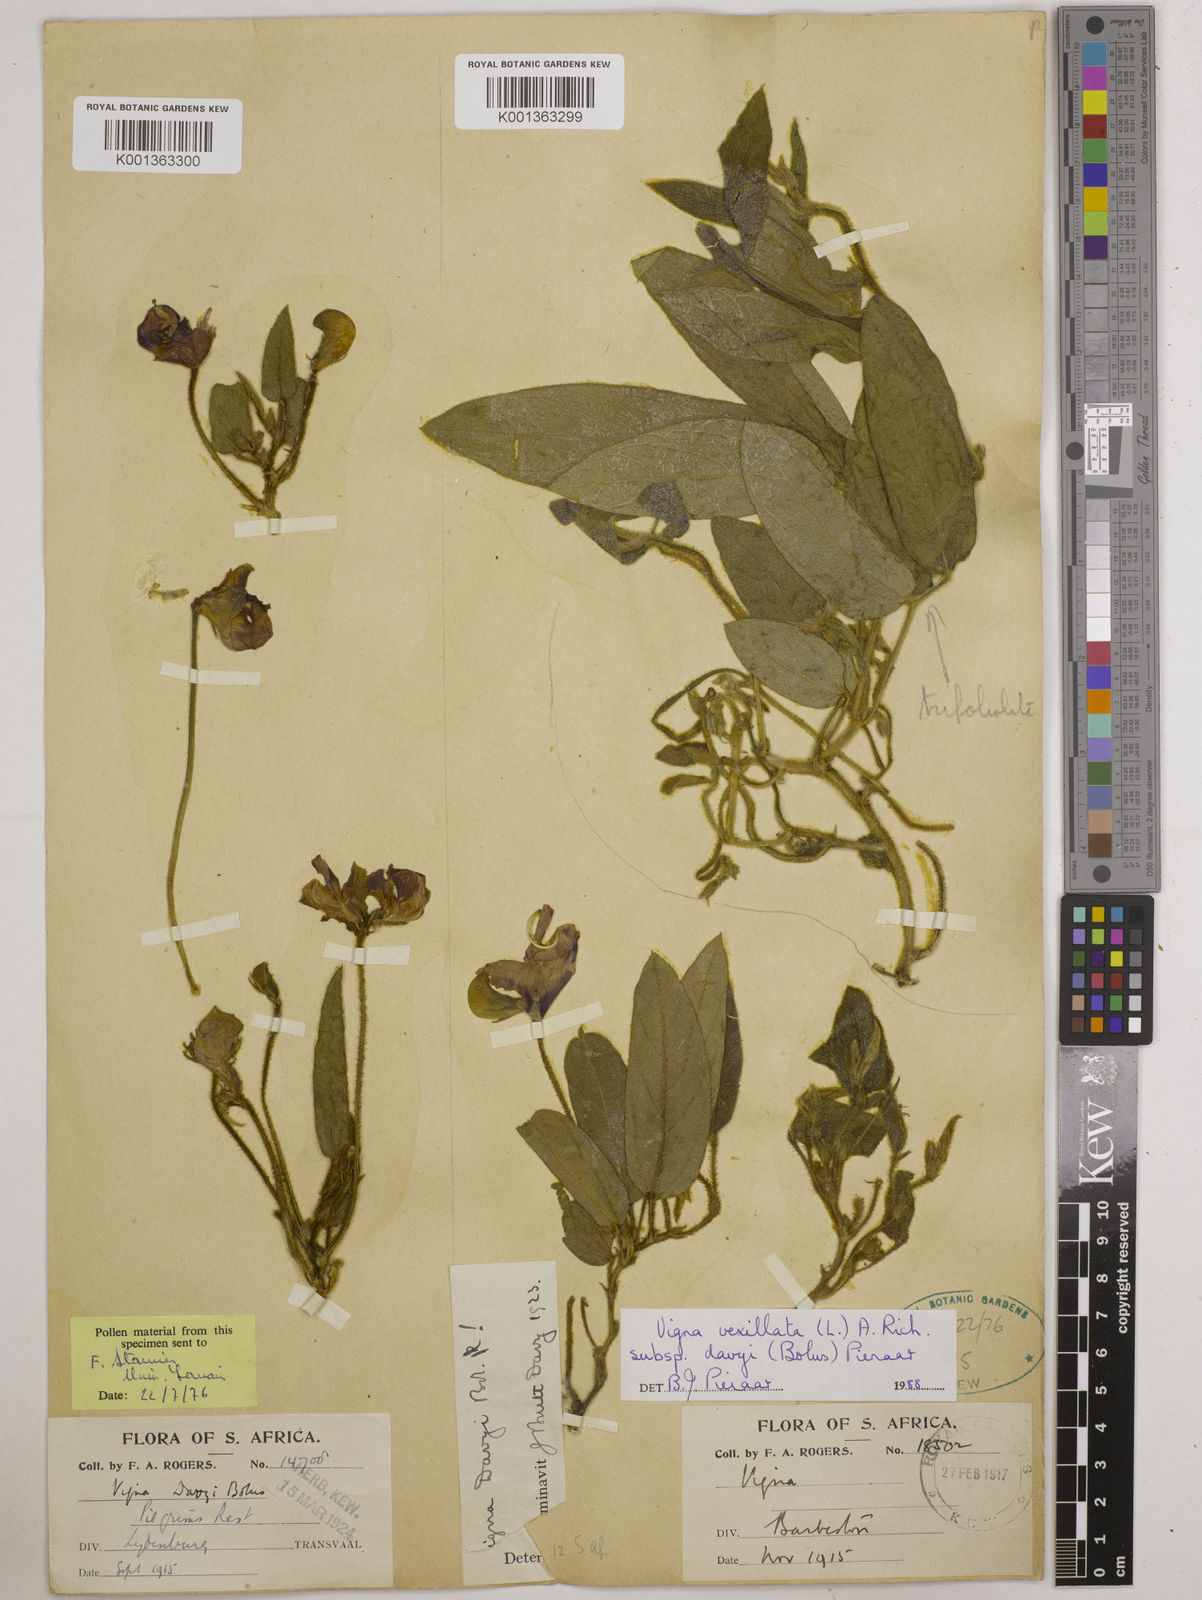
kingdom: Plantae
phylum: Tracheophyta
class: Magnoliopsida
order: Fabales
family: Fabaceae
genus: Vigna
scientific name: Vigna vexillata
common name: Zombi pea
